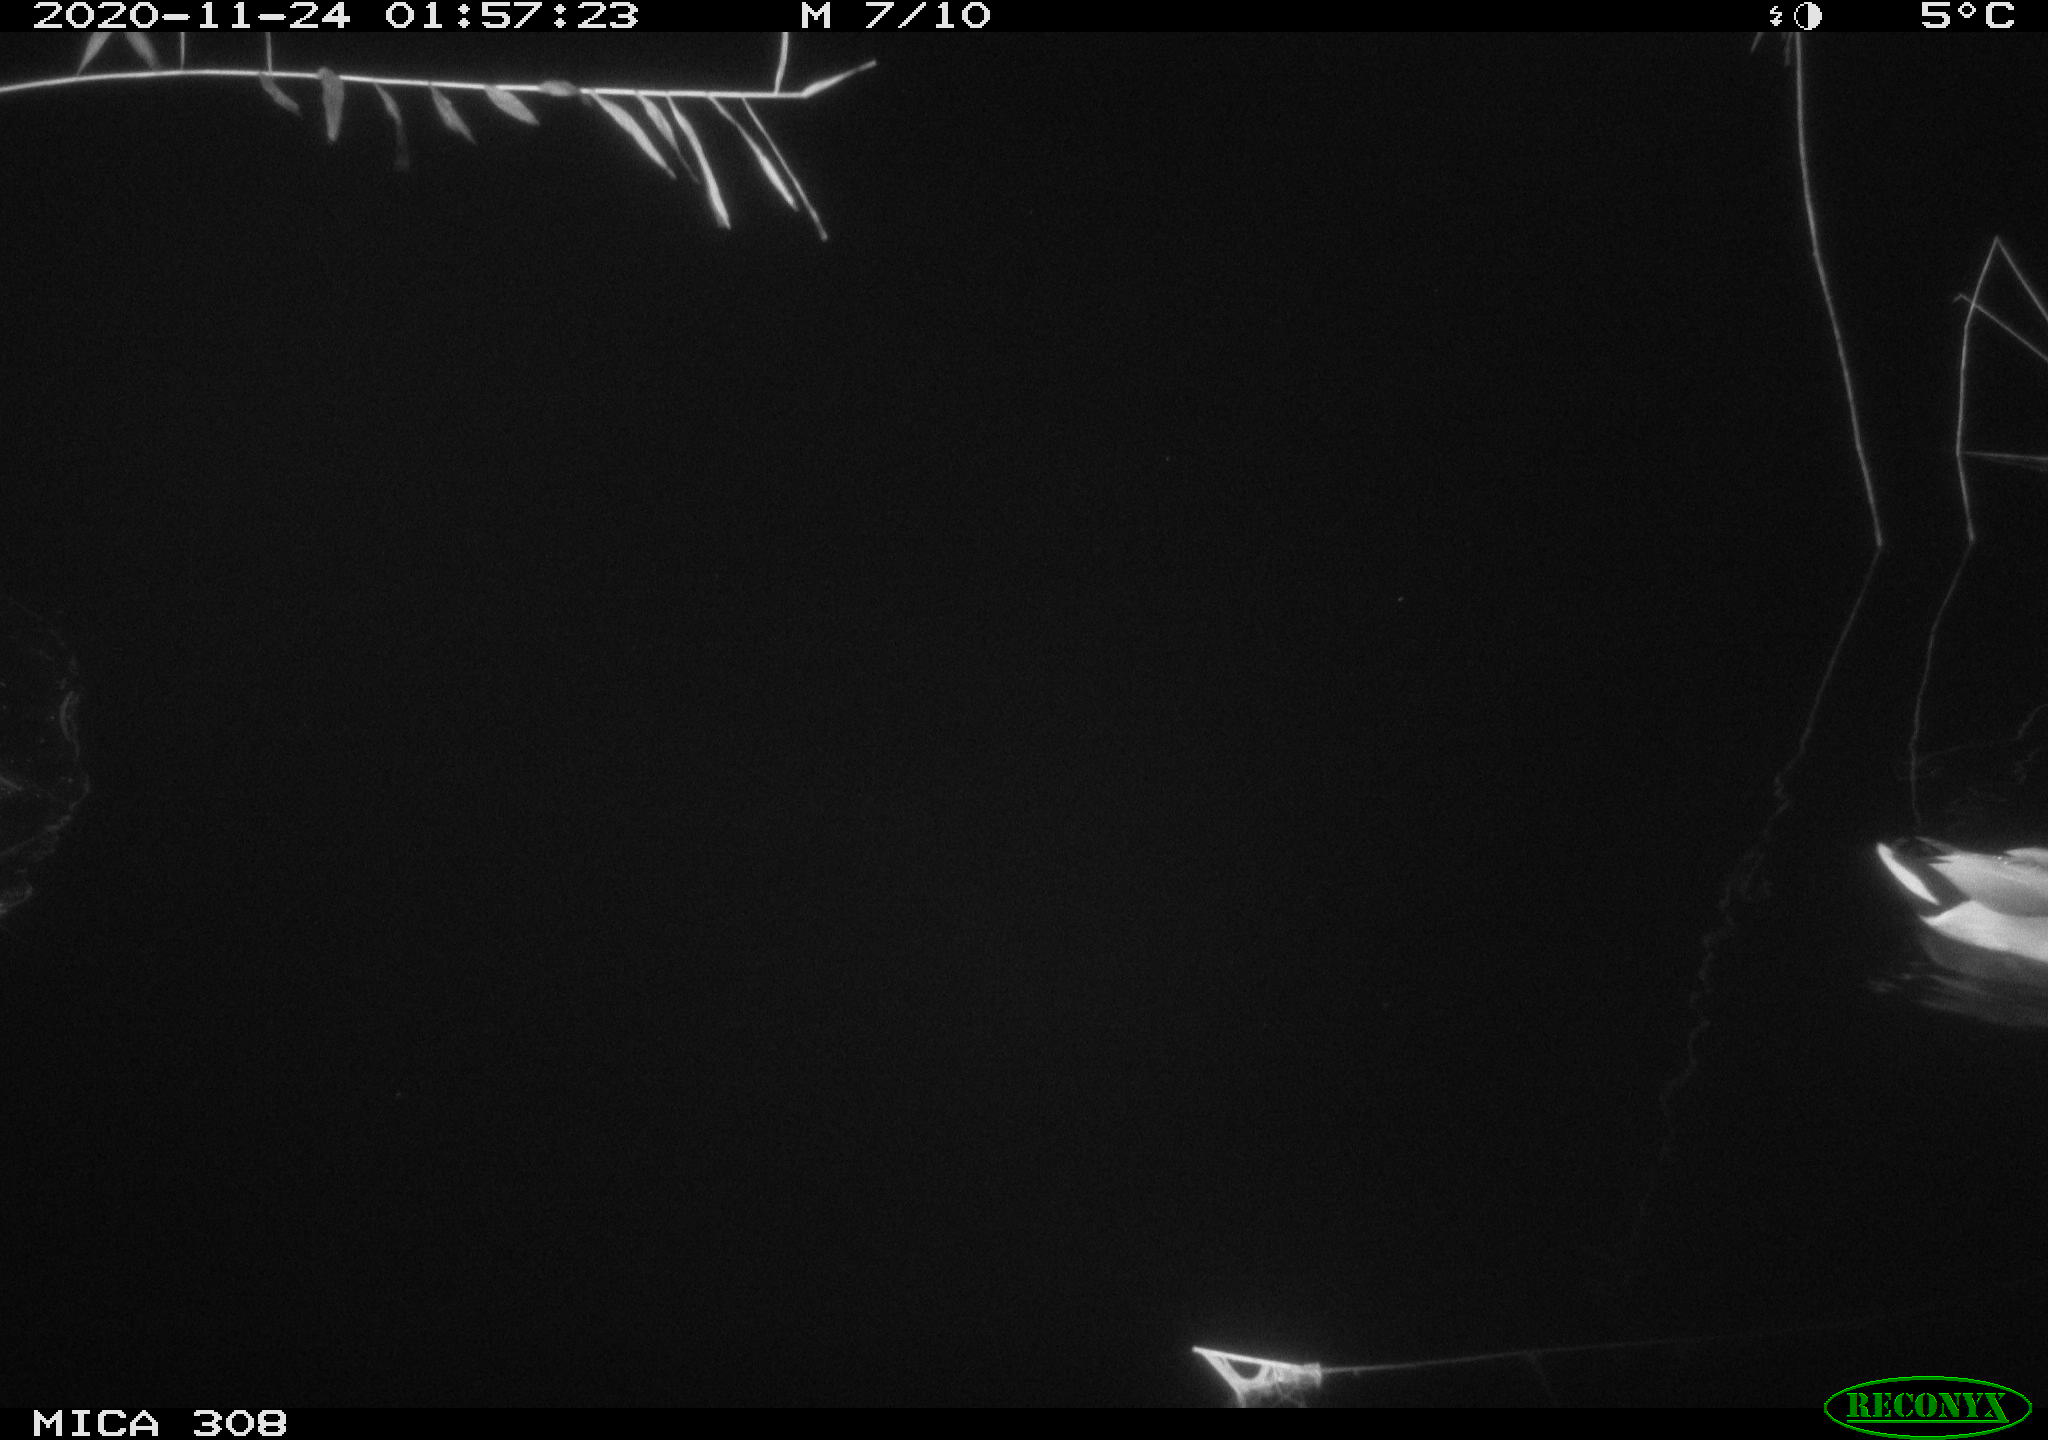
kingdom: Animalia
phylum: Chordata
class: Aves
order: Anseriformes
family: Anatidae
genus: Anas
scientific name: Anas platyrhynchos
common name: Mallard
